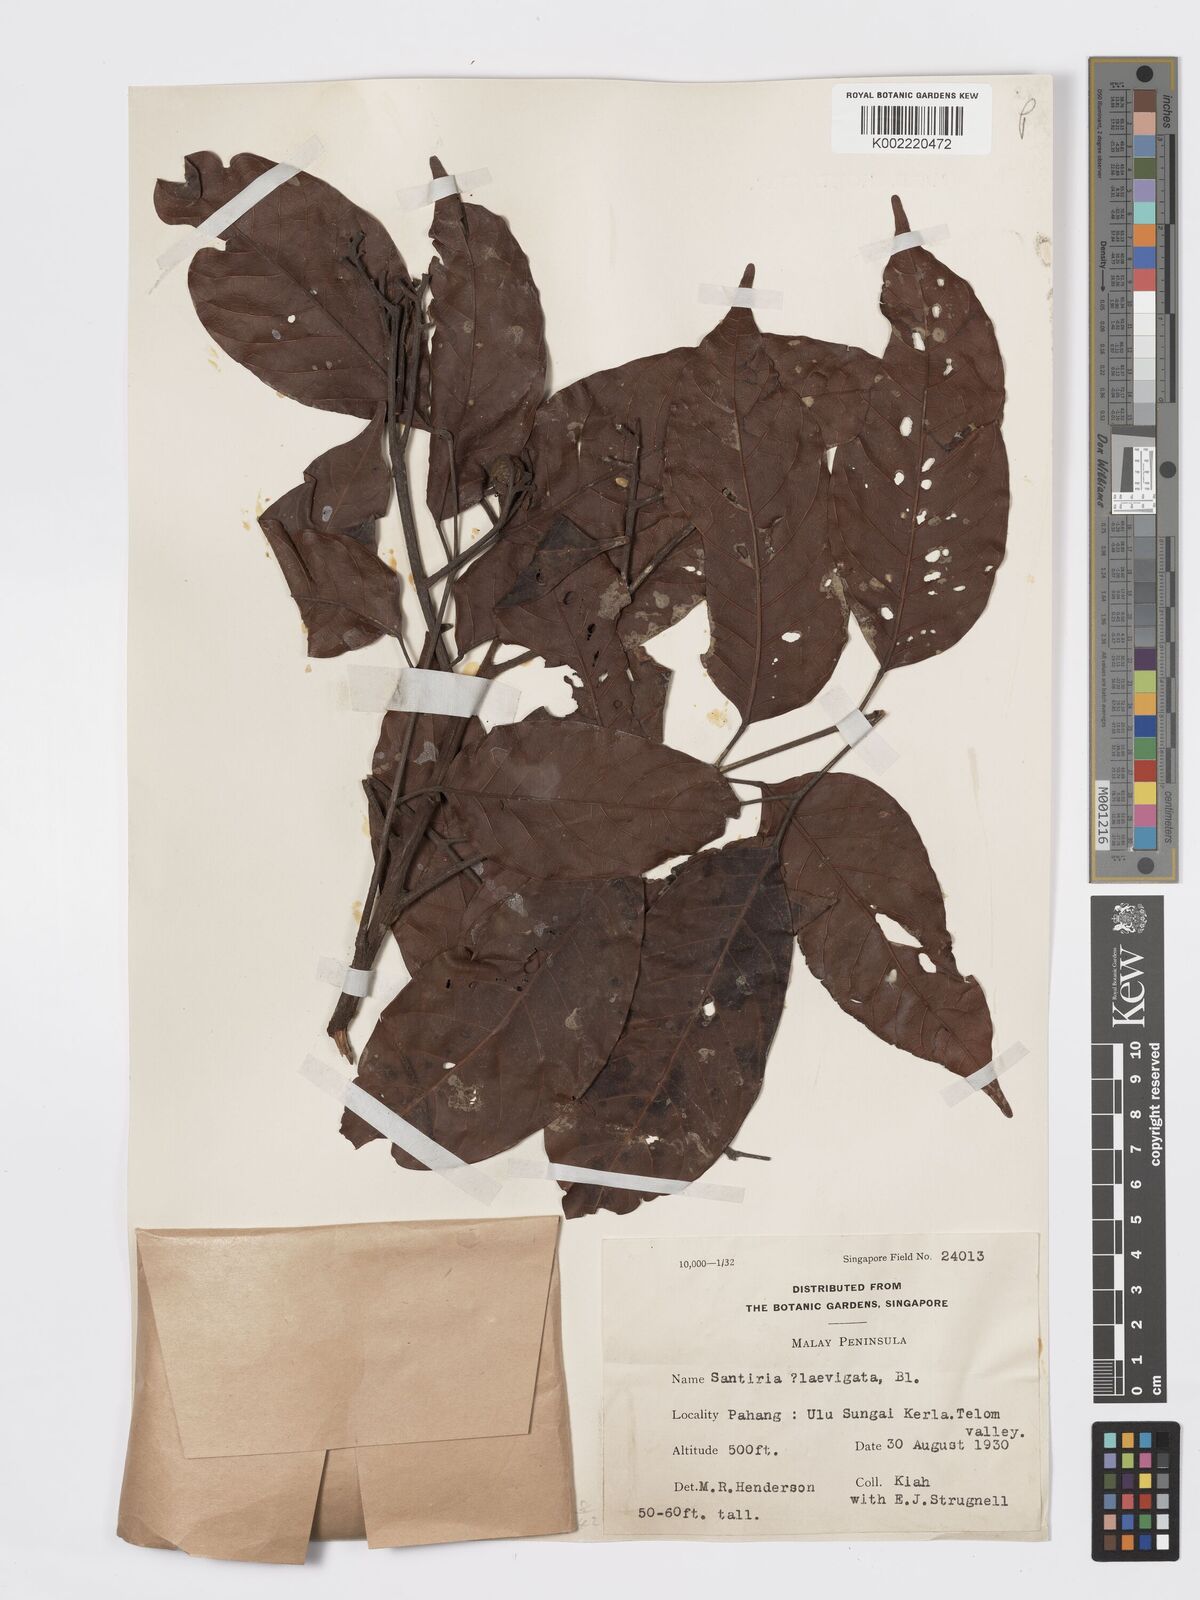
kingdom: Plantae
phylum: Tracheophyta
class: Magnoliopsida
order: Sapindales
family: Burseraceae
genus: Santiria
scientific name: Santiria laevigata
